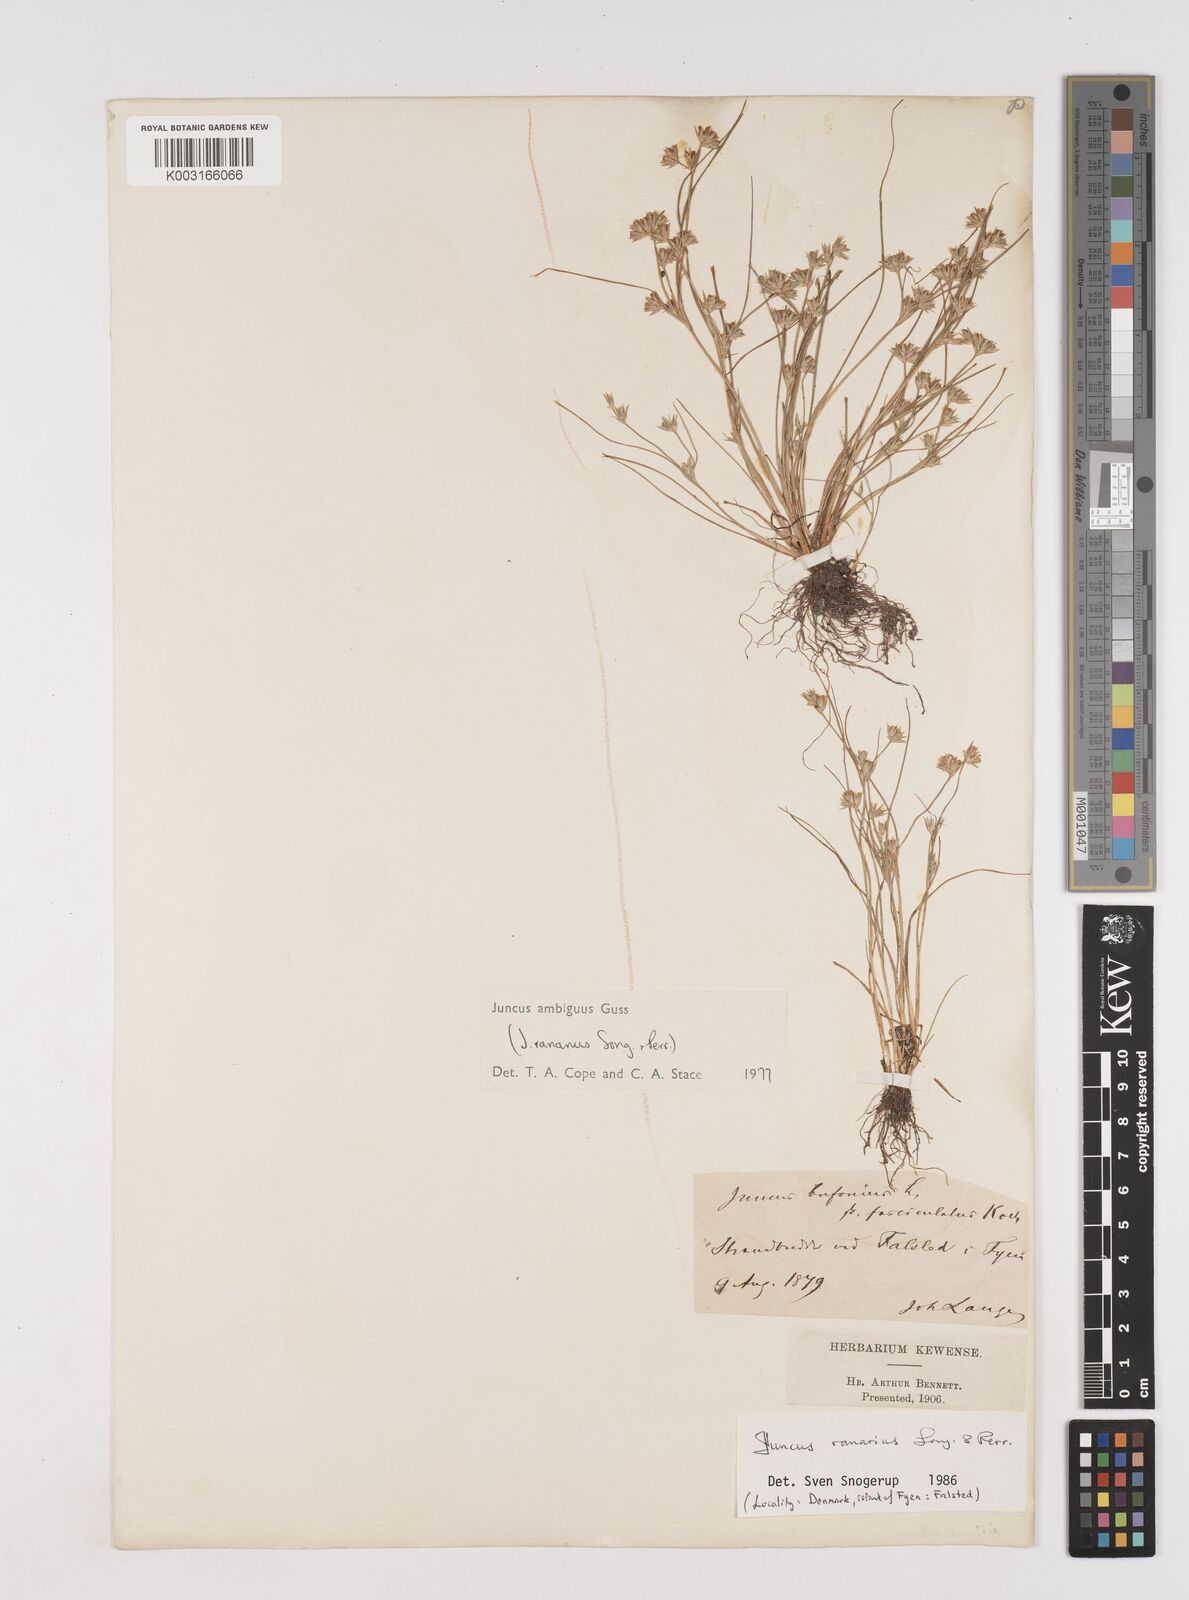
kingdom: Plantae
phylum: Tracheophyta
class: Liliopsida
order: Poales
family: Juncaceae
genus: Juncus
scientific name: Juncus hybridus
